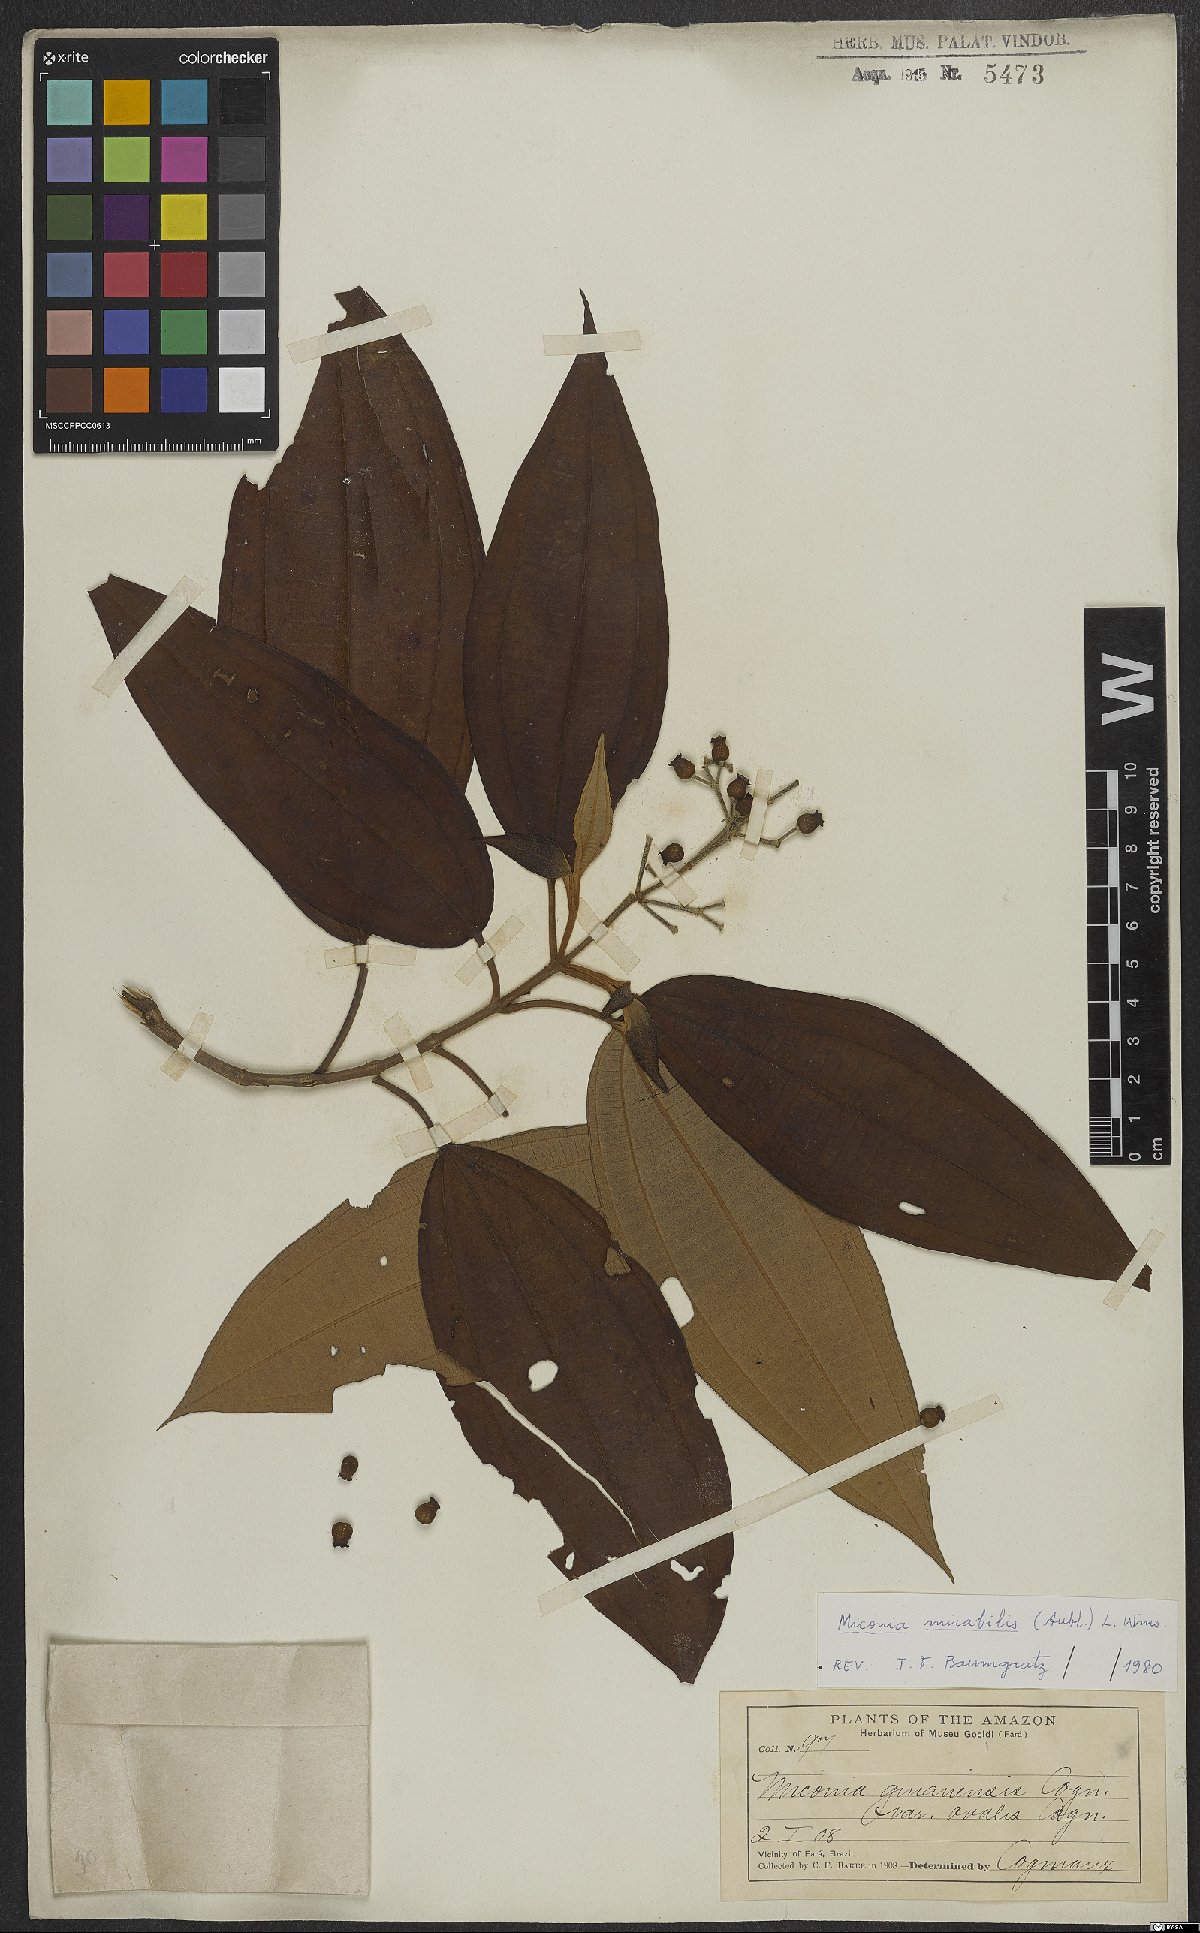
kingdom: Plantae
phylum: Tracheophyta
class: Magnoliopsida
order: Myrtales
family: Melastomataceae
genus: Miconia
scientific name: Miconia mirabilis
